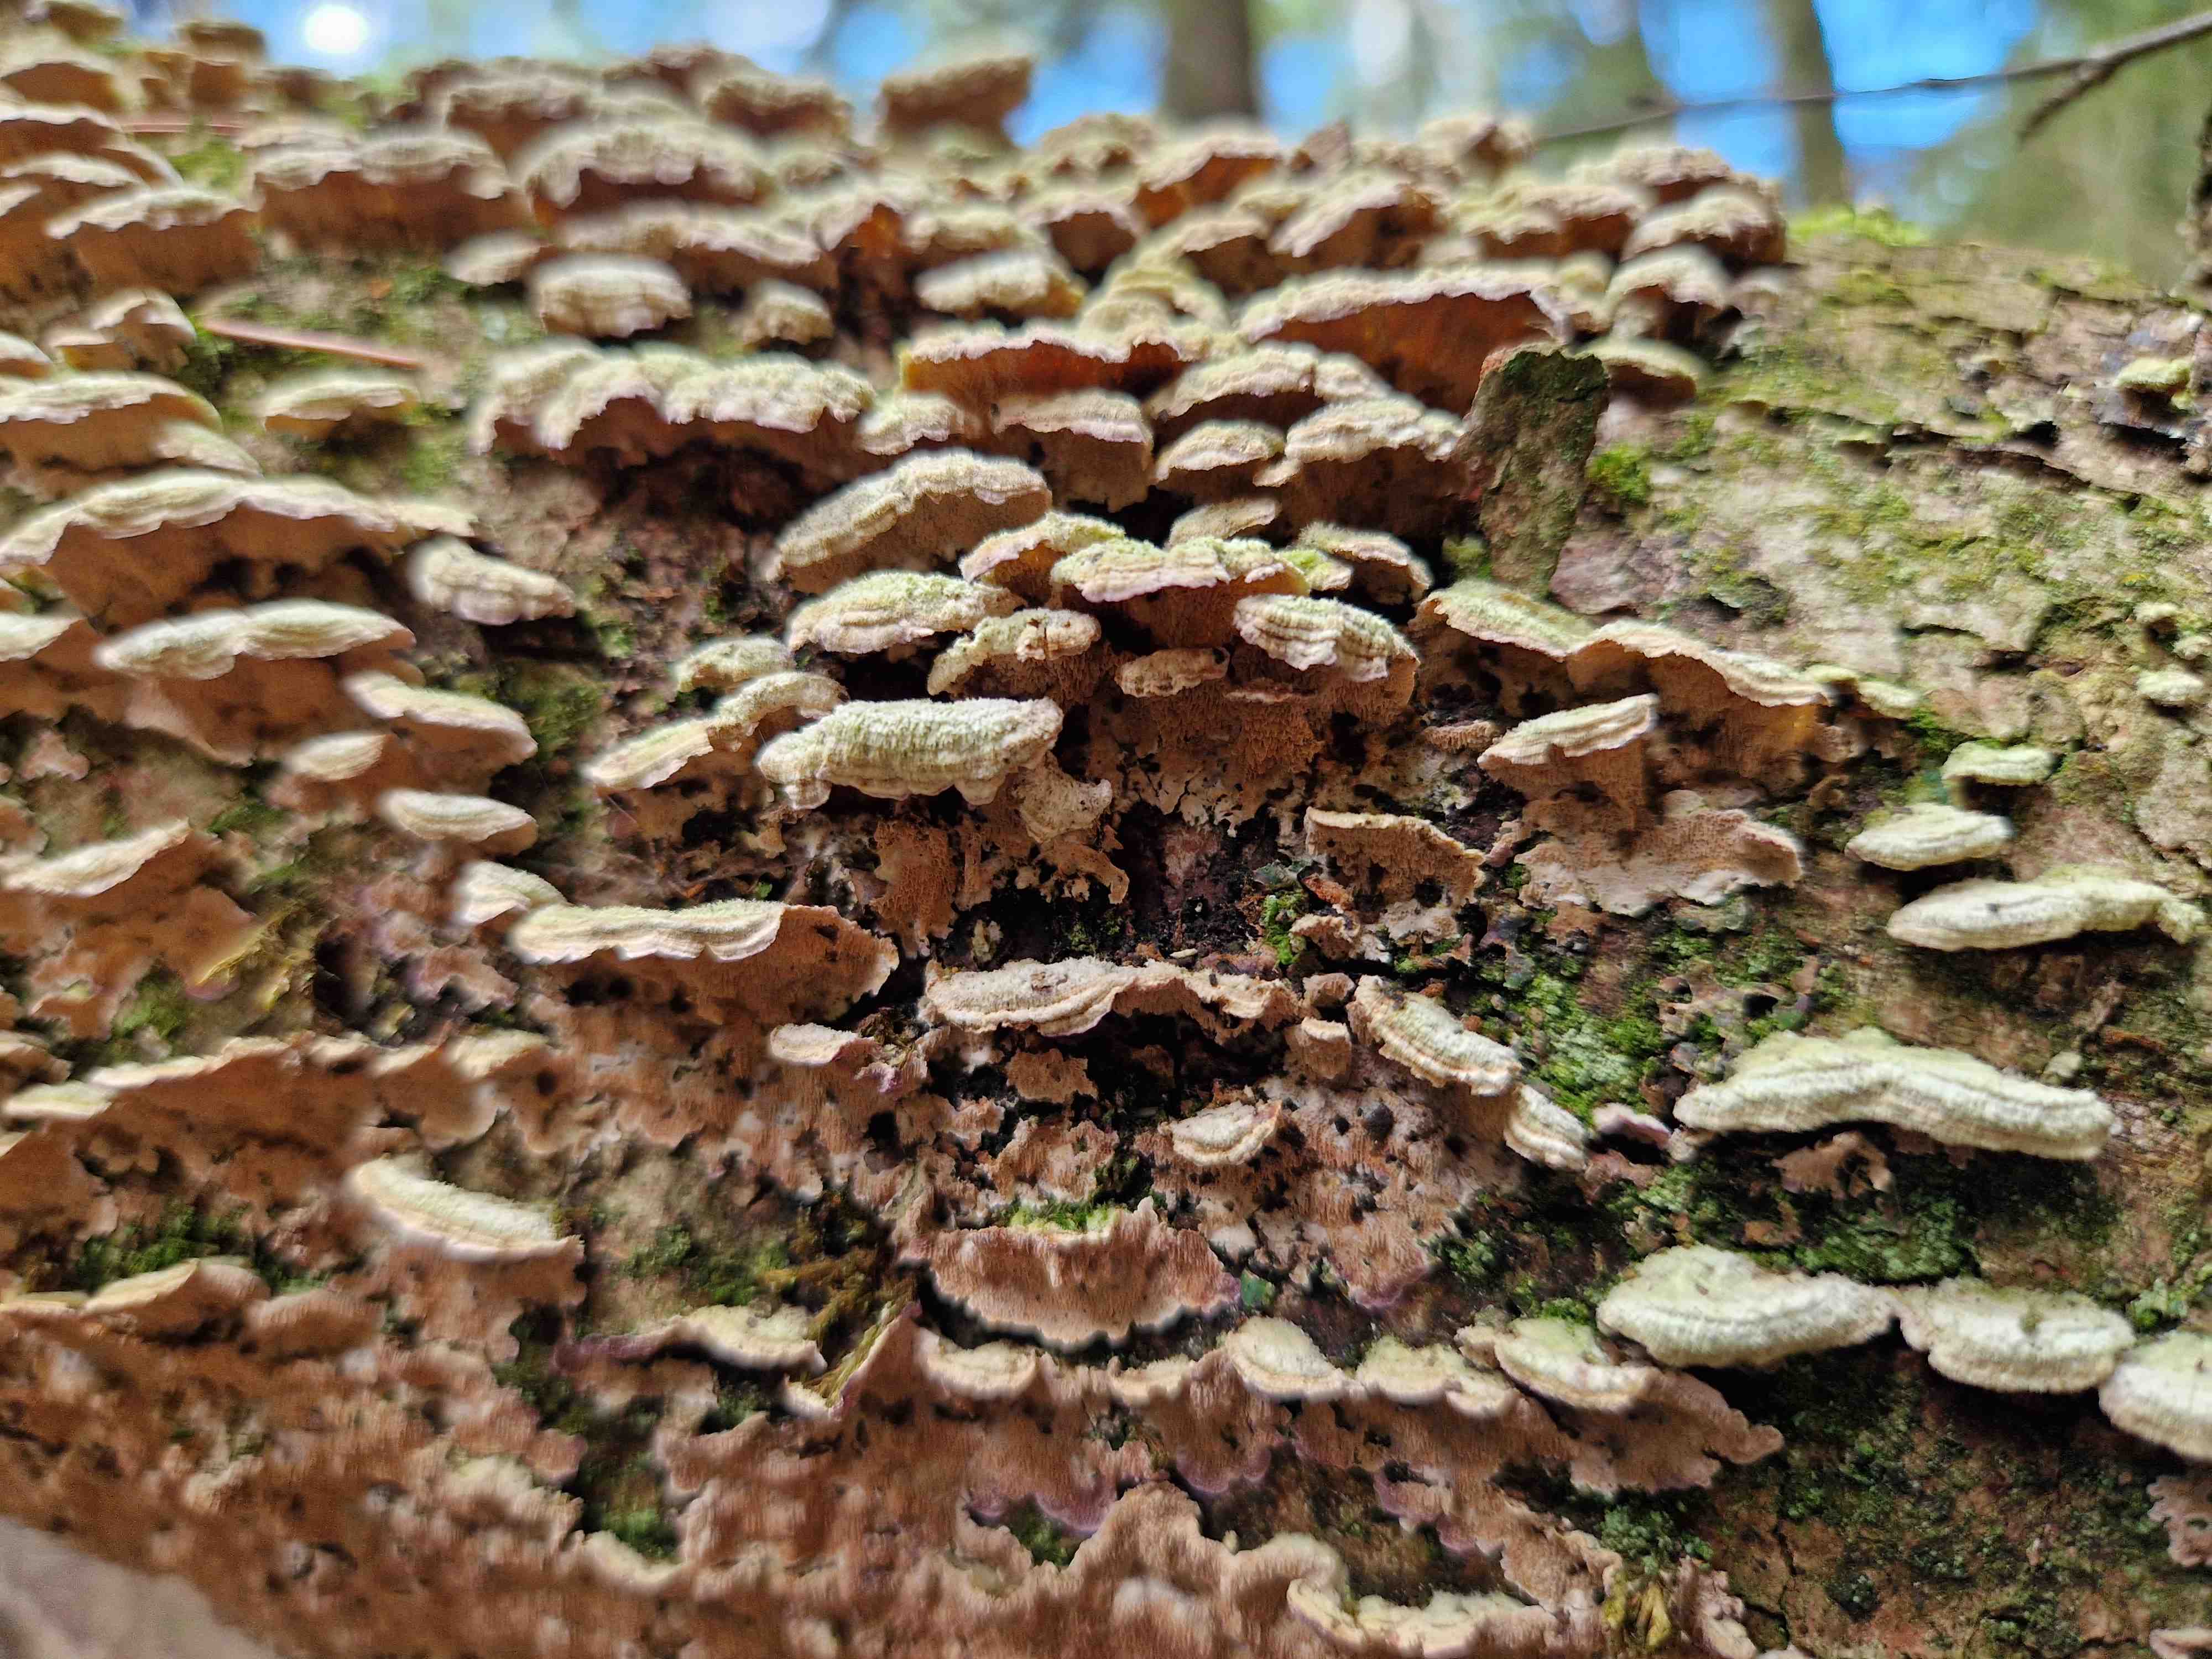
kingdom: Fungi
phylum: Basidiomycota
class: Agaricomycetes
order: Agaricales
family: Schizophyllaceae
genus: Schizophyllum
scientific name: Schizophyllum commune
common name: kløvblad
